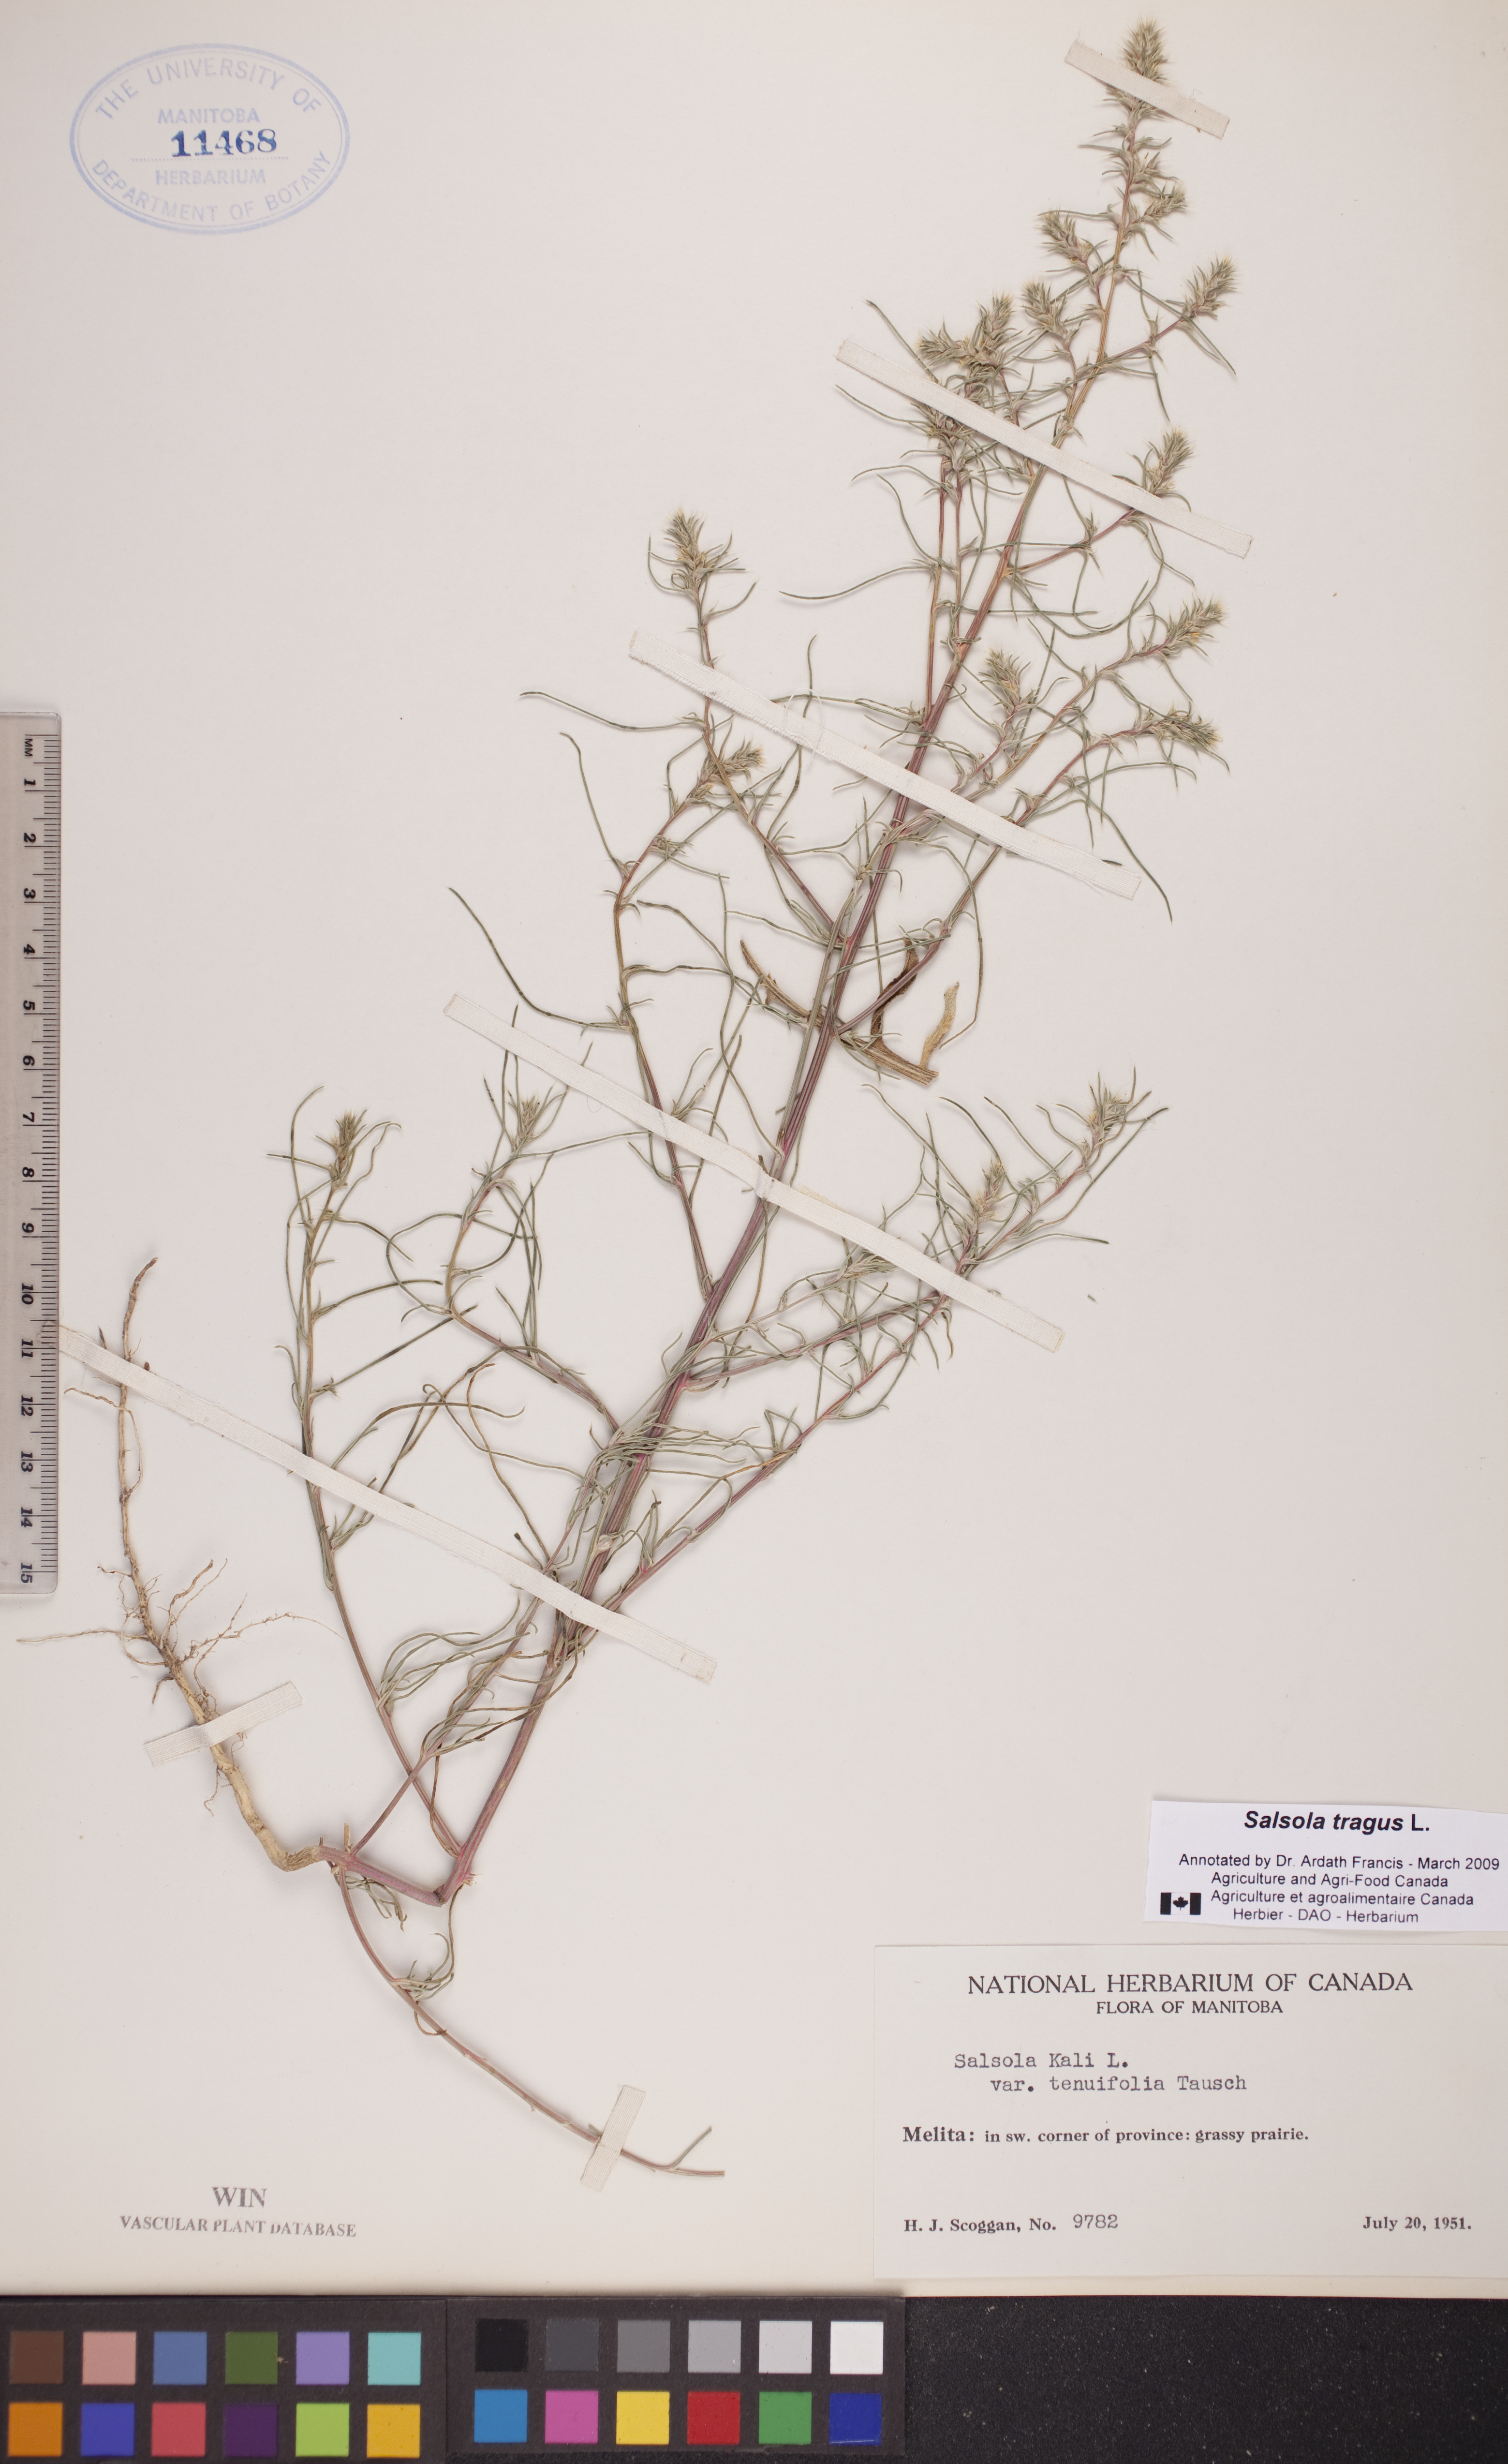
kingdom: Plantae
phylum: Tracheophyta
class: Magnoliopsida
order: Caryophyllales
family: Amaranthaceae
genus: Salsola
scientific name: Salsola tragus
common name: Prickly russian thistle
